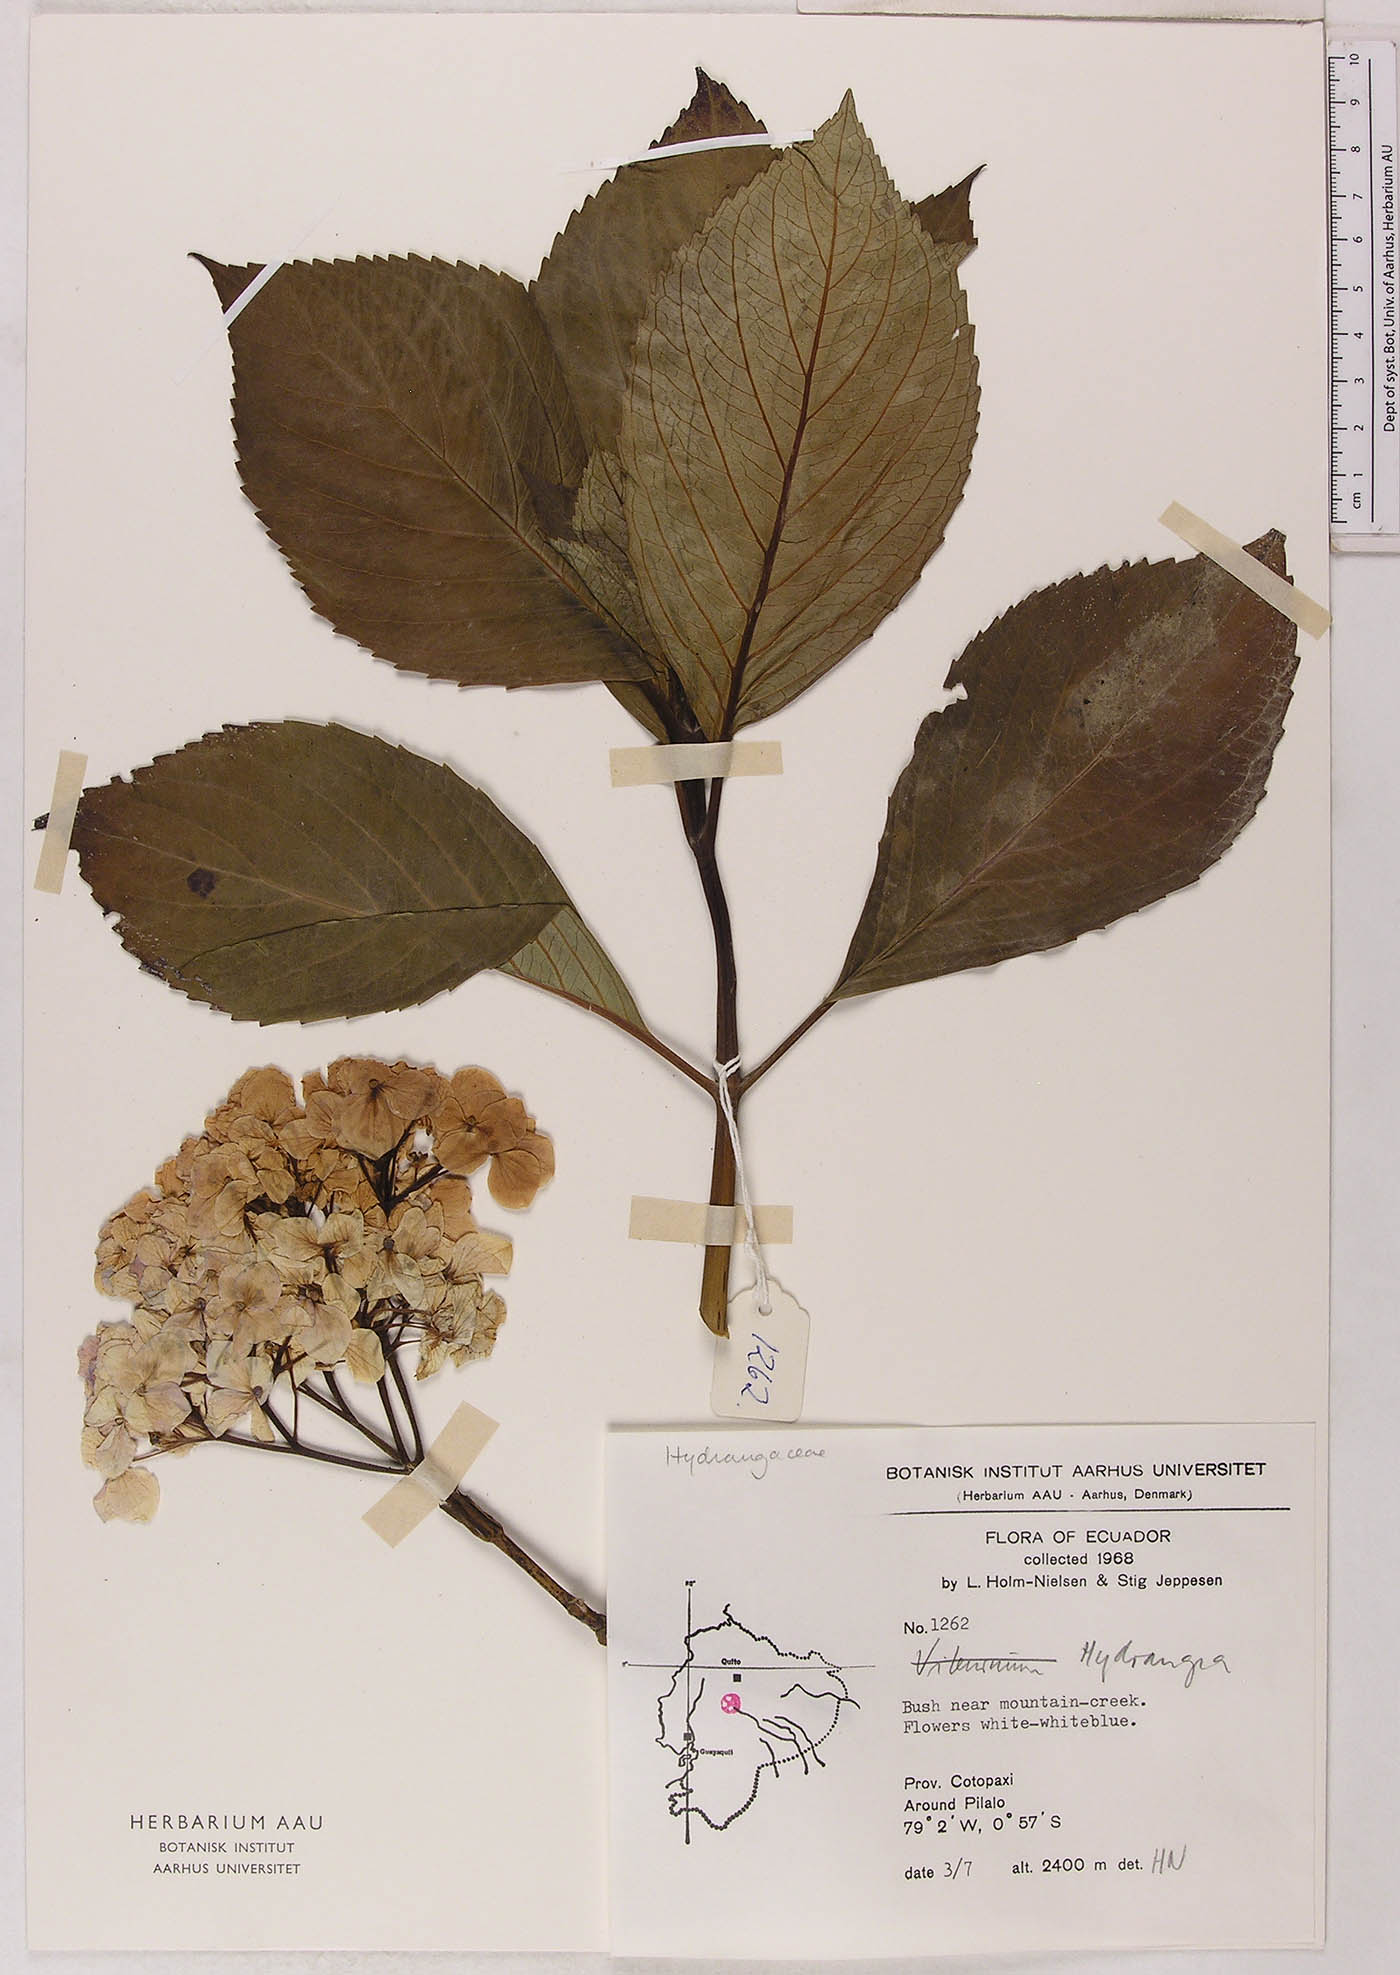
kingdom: Plantae
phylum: Tracheophyta
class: Magnoliopsida
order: Cornales
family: Hydrangeaceae
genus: Hydrangea
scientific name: Hydrangea
